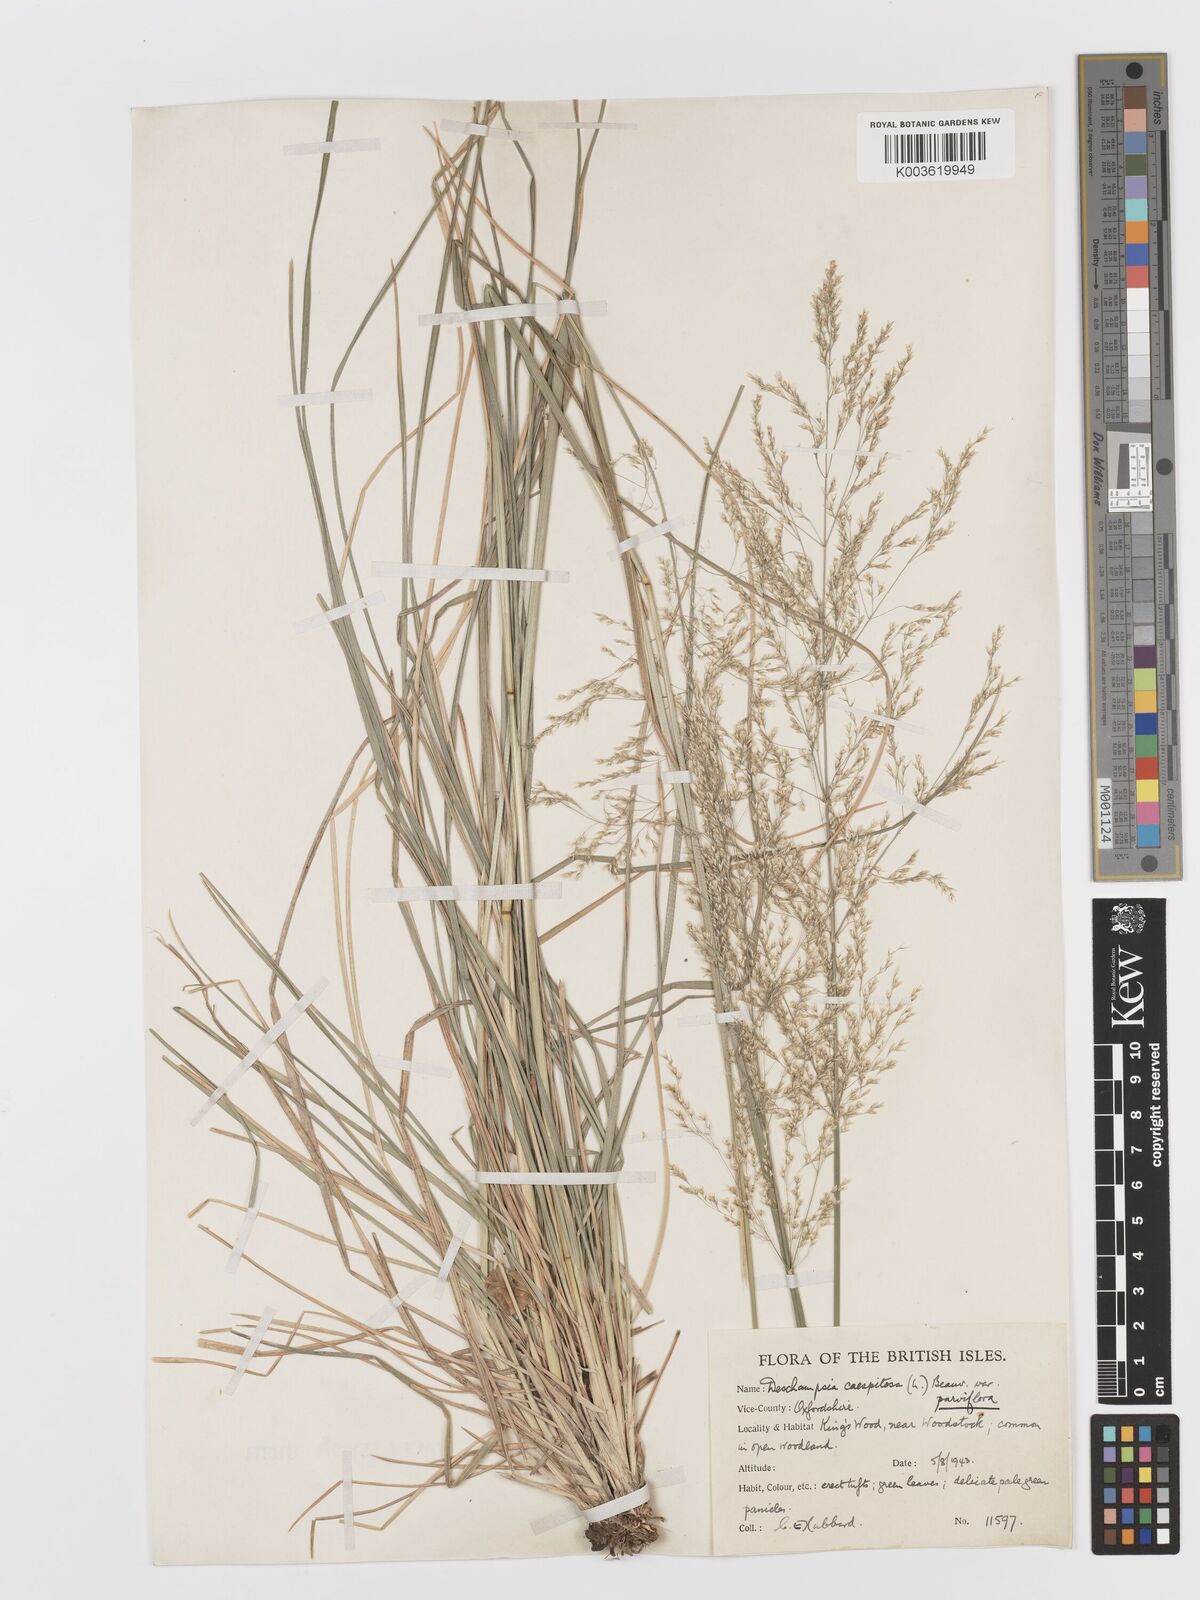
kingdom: Plantae
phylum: Tracheophyta
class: Liliopsida
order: Poales
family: Poaceae
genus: Deschampsia
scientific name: Deschampsia
